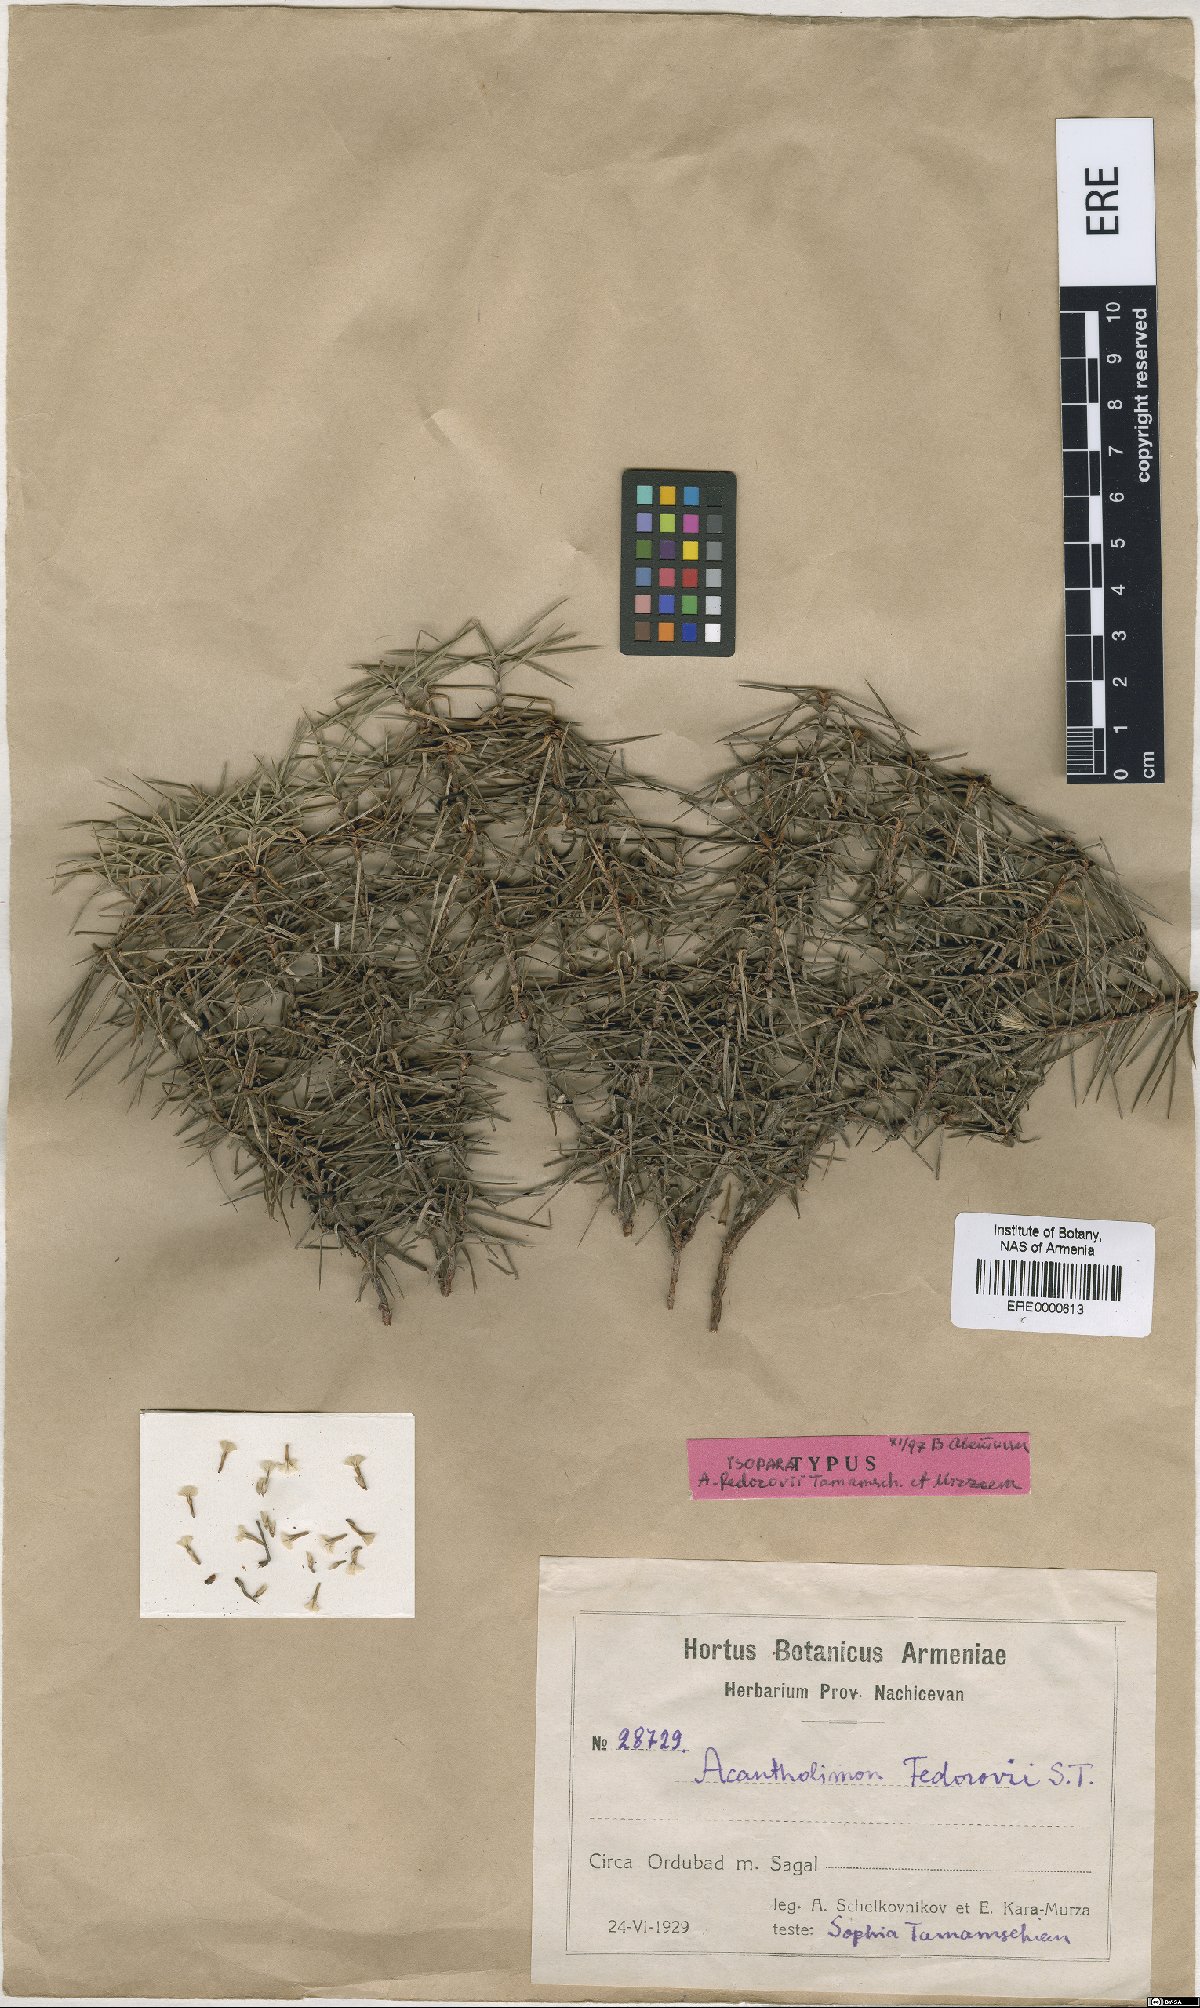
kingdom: Plantae
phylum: Tracheophyta
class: Magnoliopsida
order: Caryophyllales
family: Plumbaginaceae
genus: Acantholimon
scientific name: Acantholimon fedorovii
